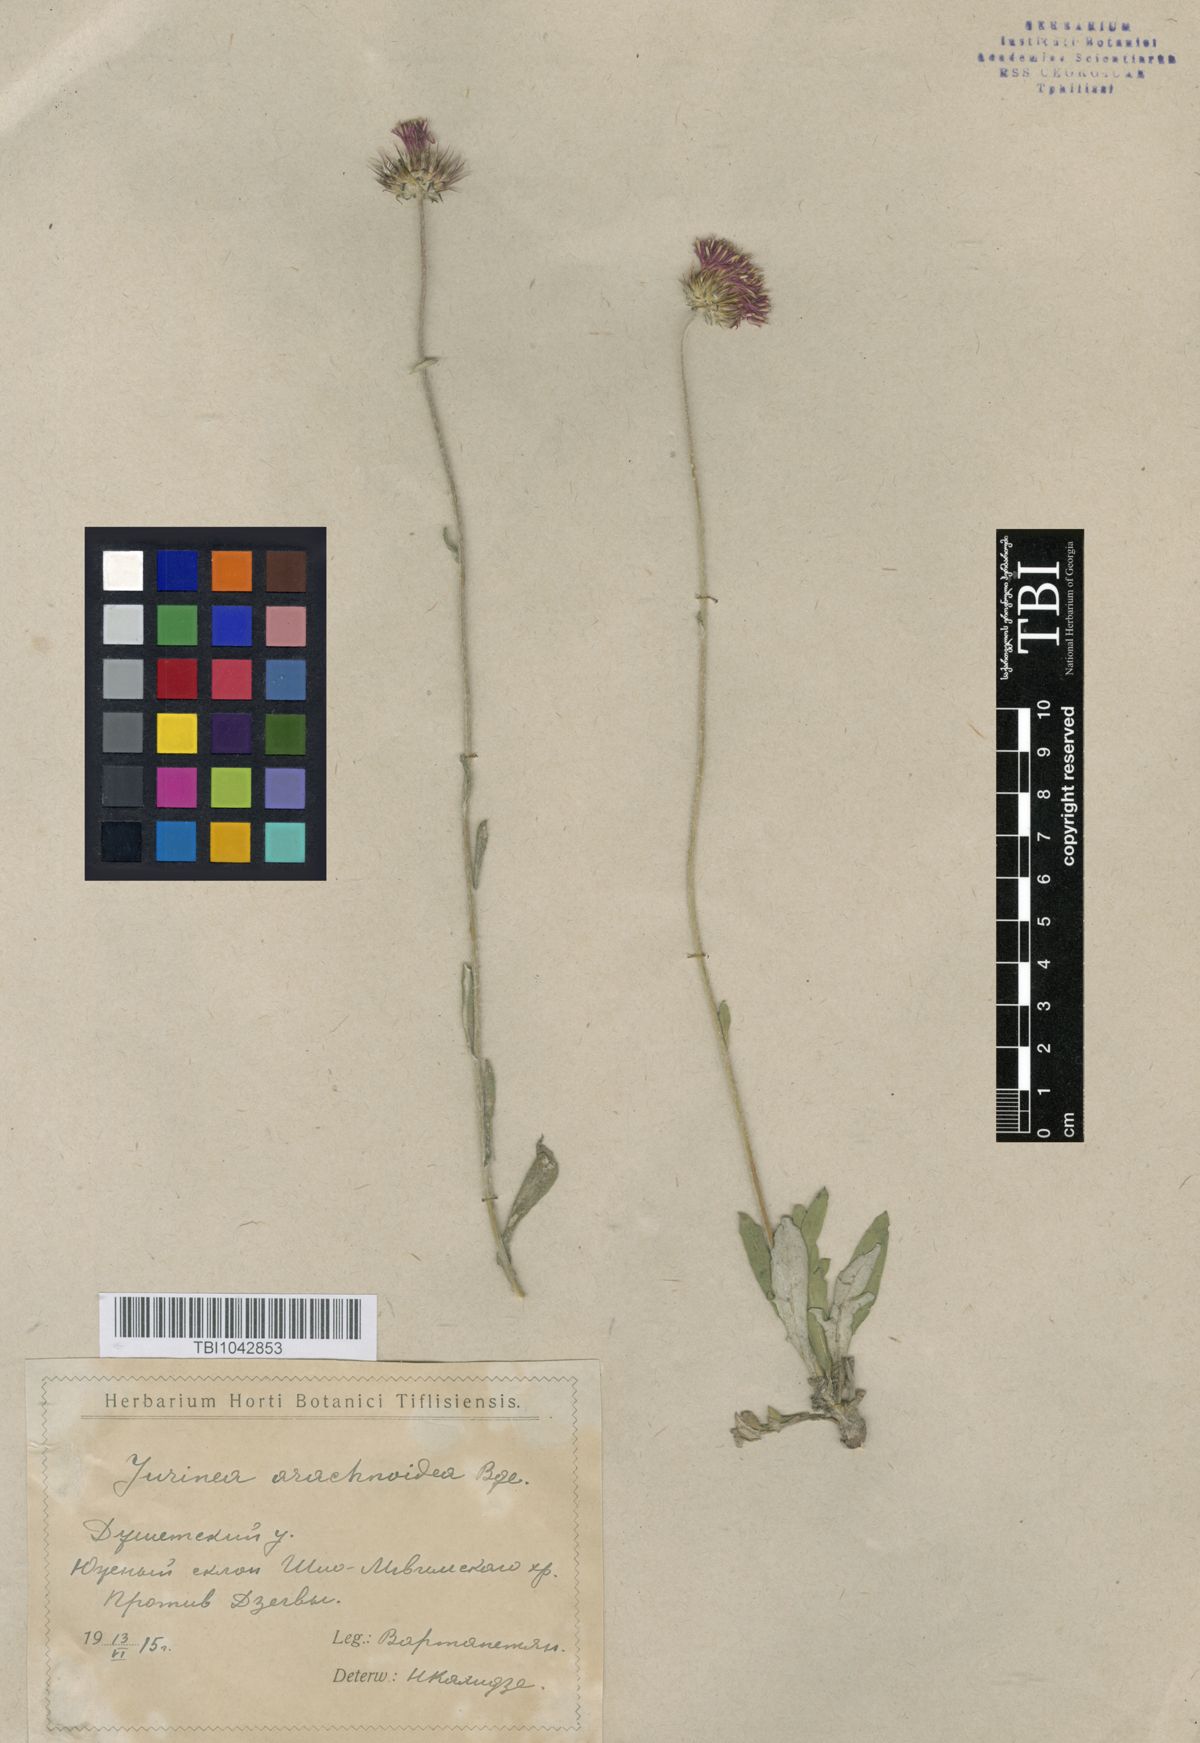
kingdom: Plantae
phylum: Tracheophyta
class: Magnoliopsida
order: Asterales
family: Asteraceae
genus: Jurinea
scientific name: Jurinea blanda
